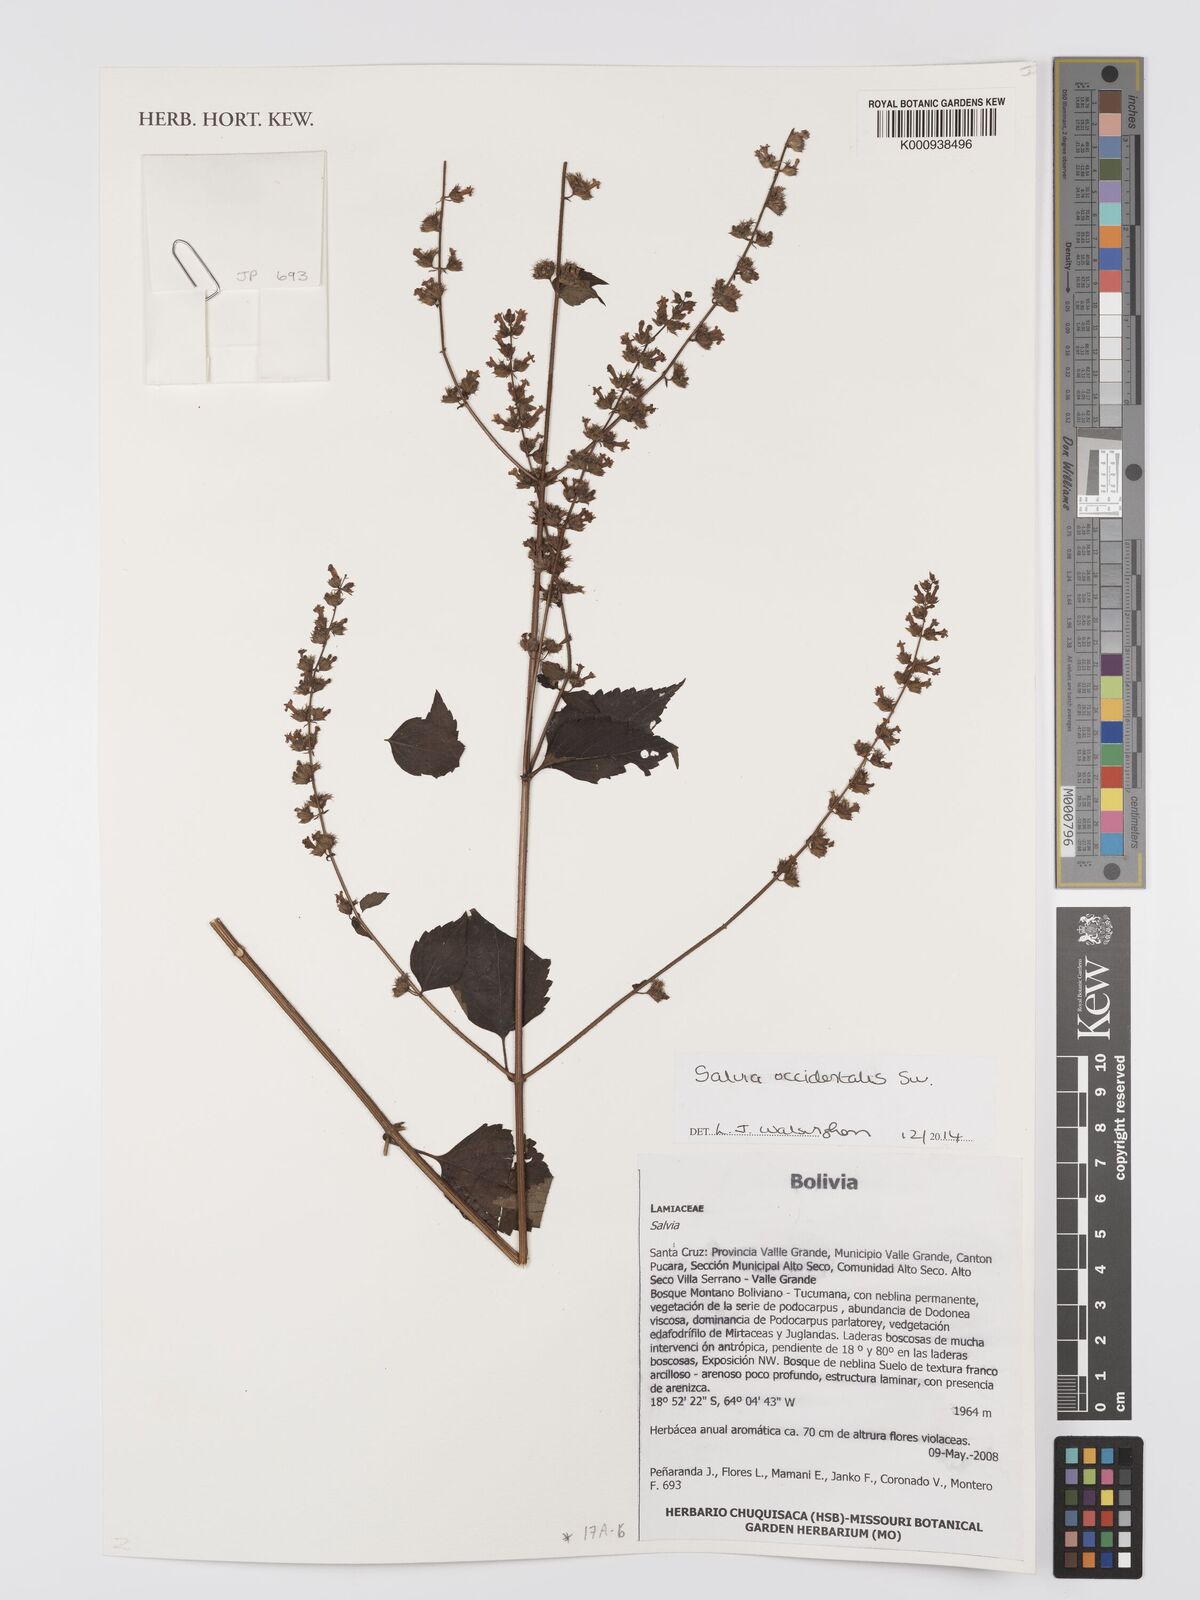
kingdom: Plantae
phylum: Tracheophyta
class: Magnoliopsida
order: Lamiales
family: Lamiaceae
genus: Salvia
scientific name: Salvia occidentalis
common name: West indian sage
